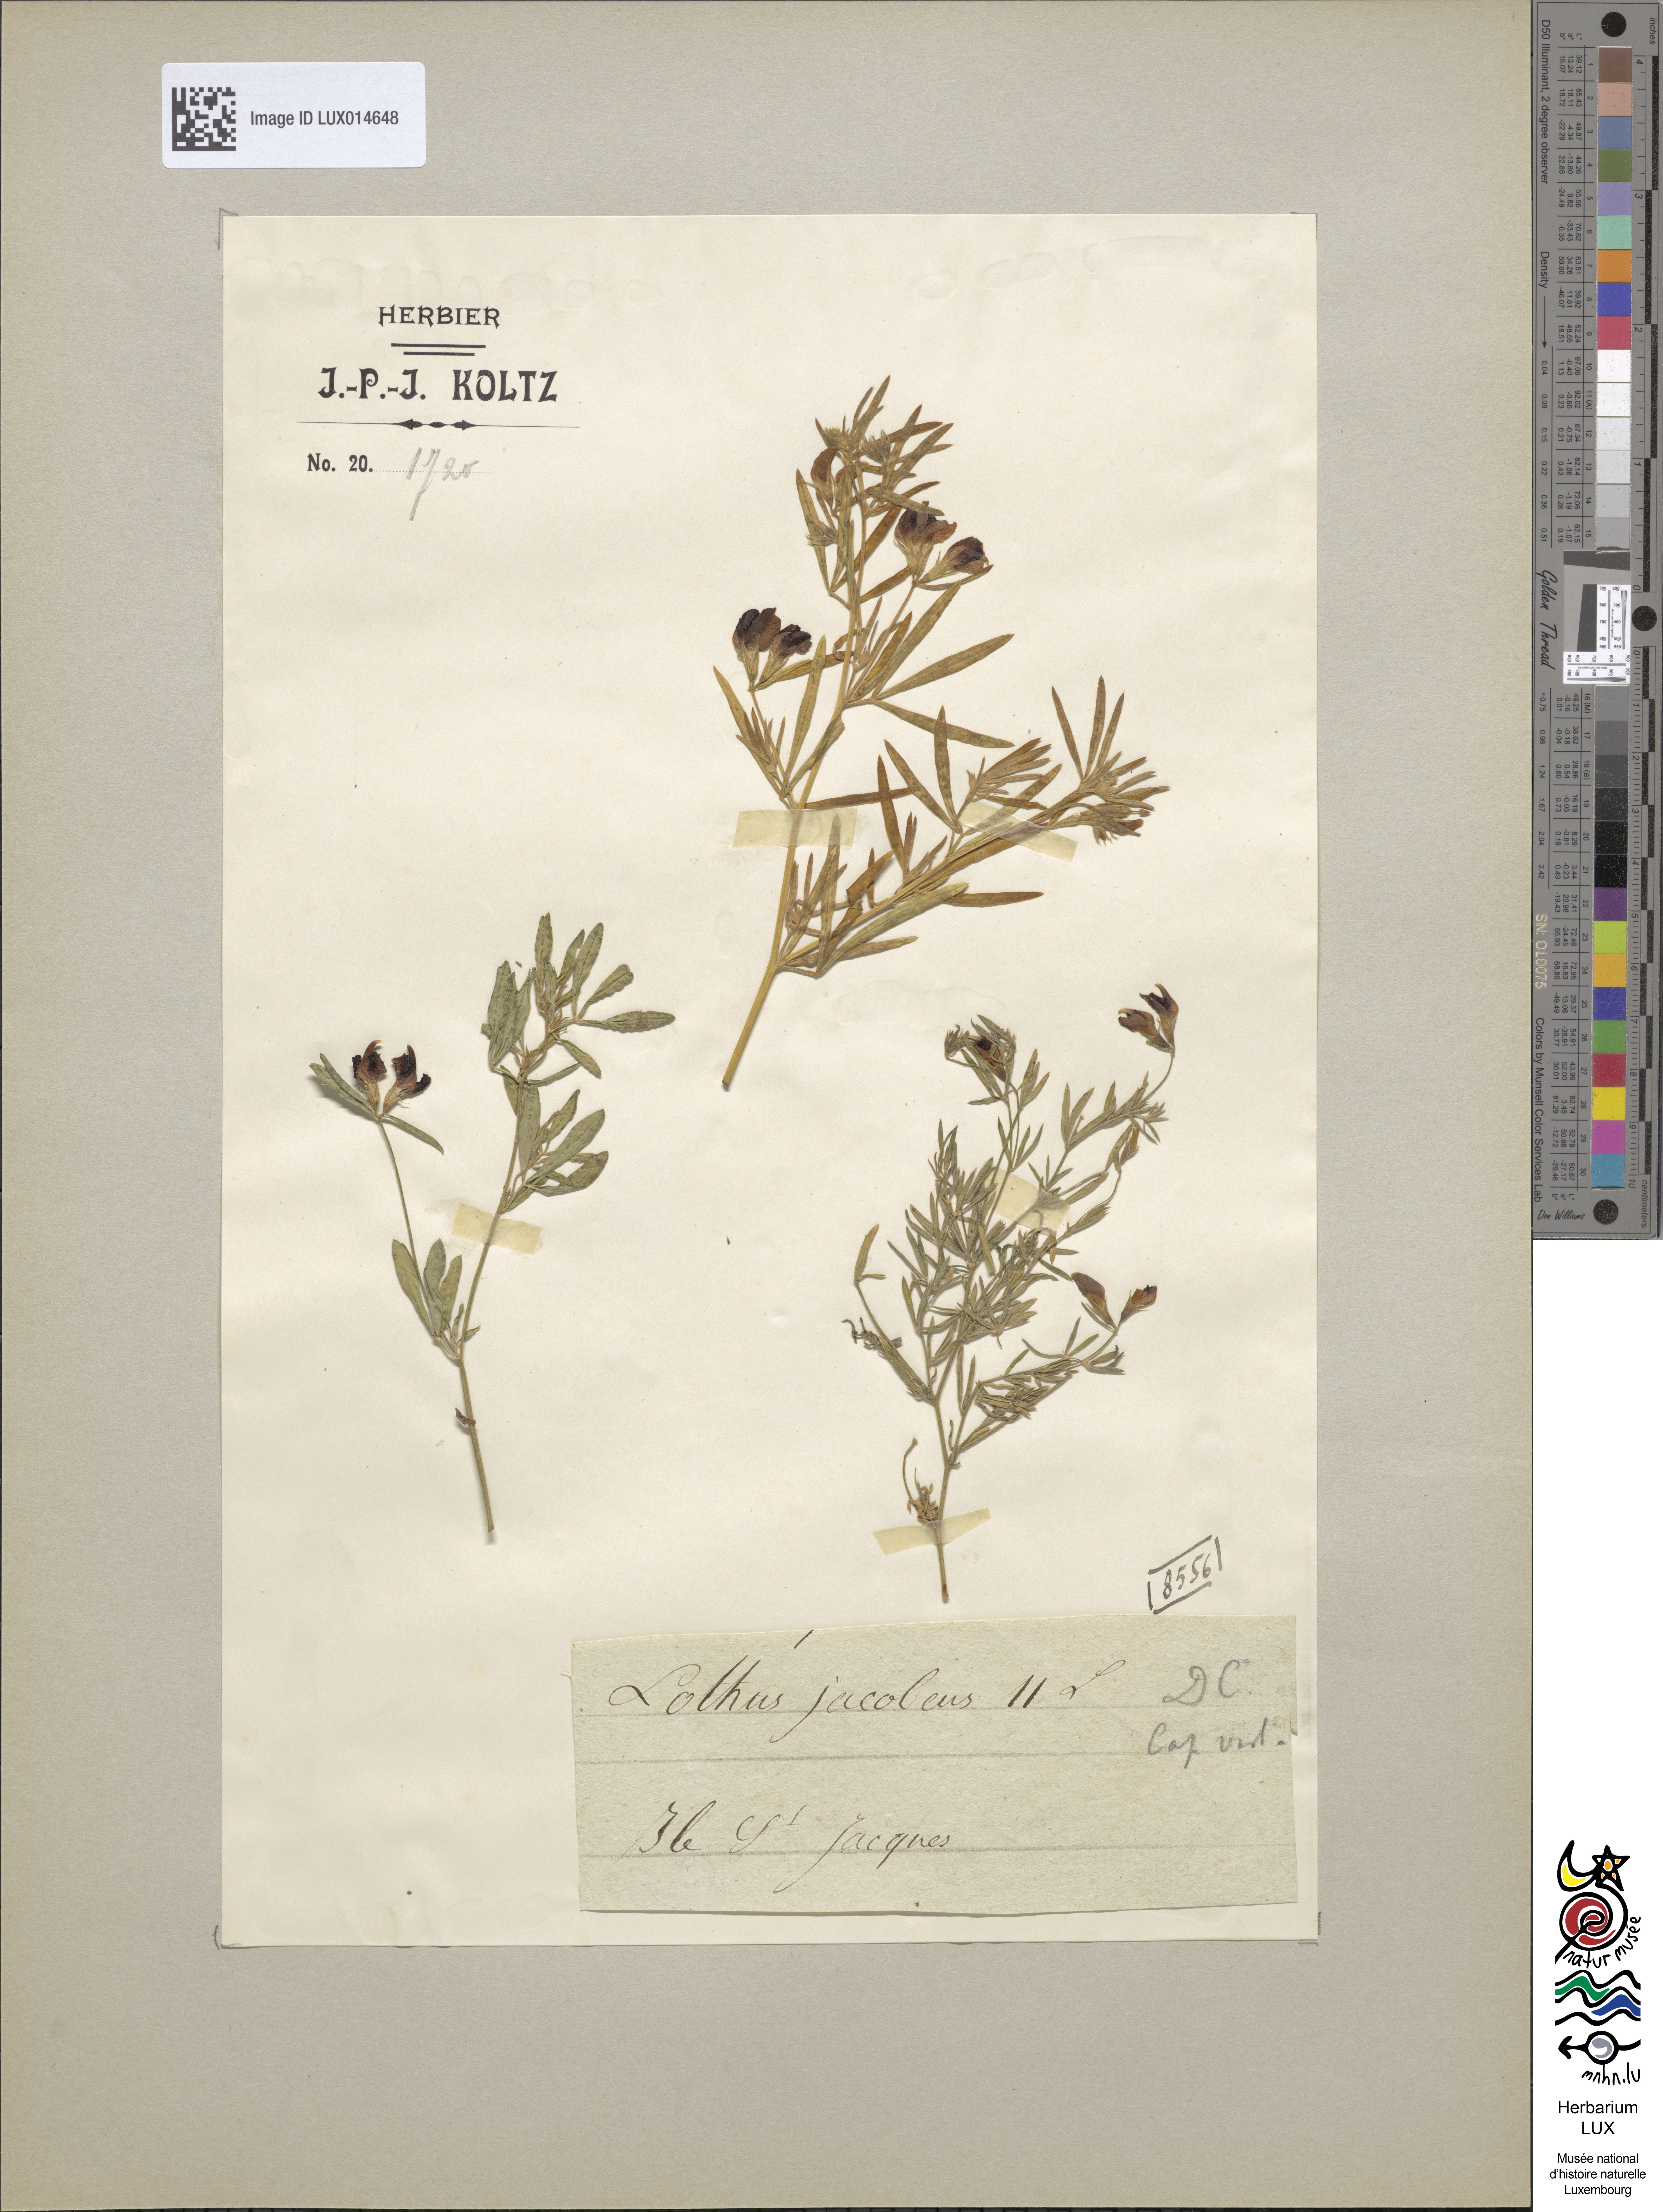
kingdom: Plantae
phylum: Tracheophyta
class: Magnoliopsida
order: Fabales
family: Fabaceae
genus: Lotus
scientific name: Lotus jacobaeus
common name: St. james's trefoil
